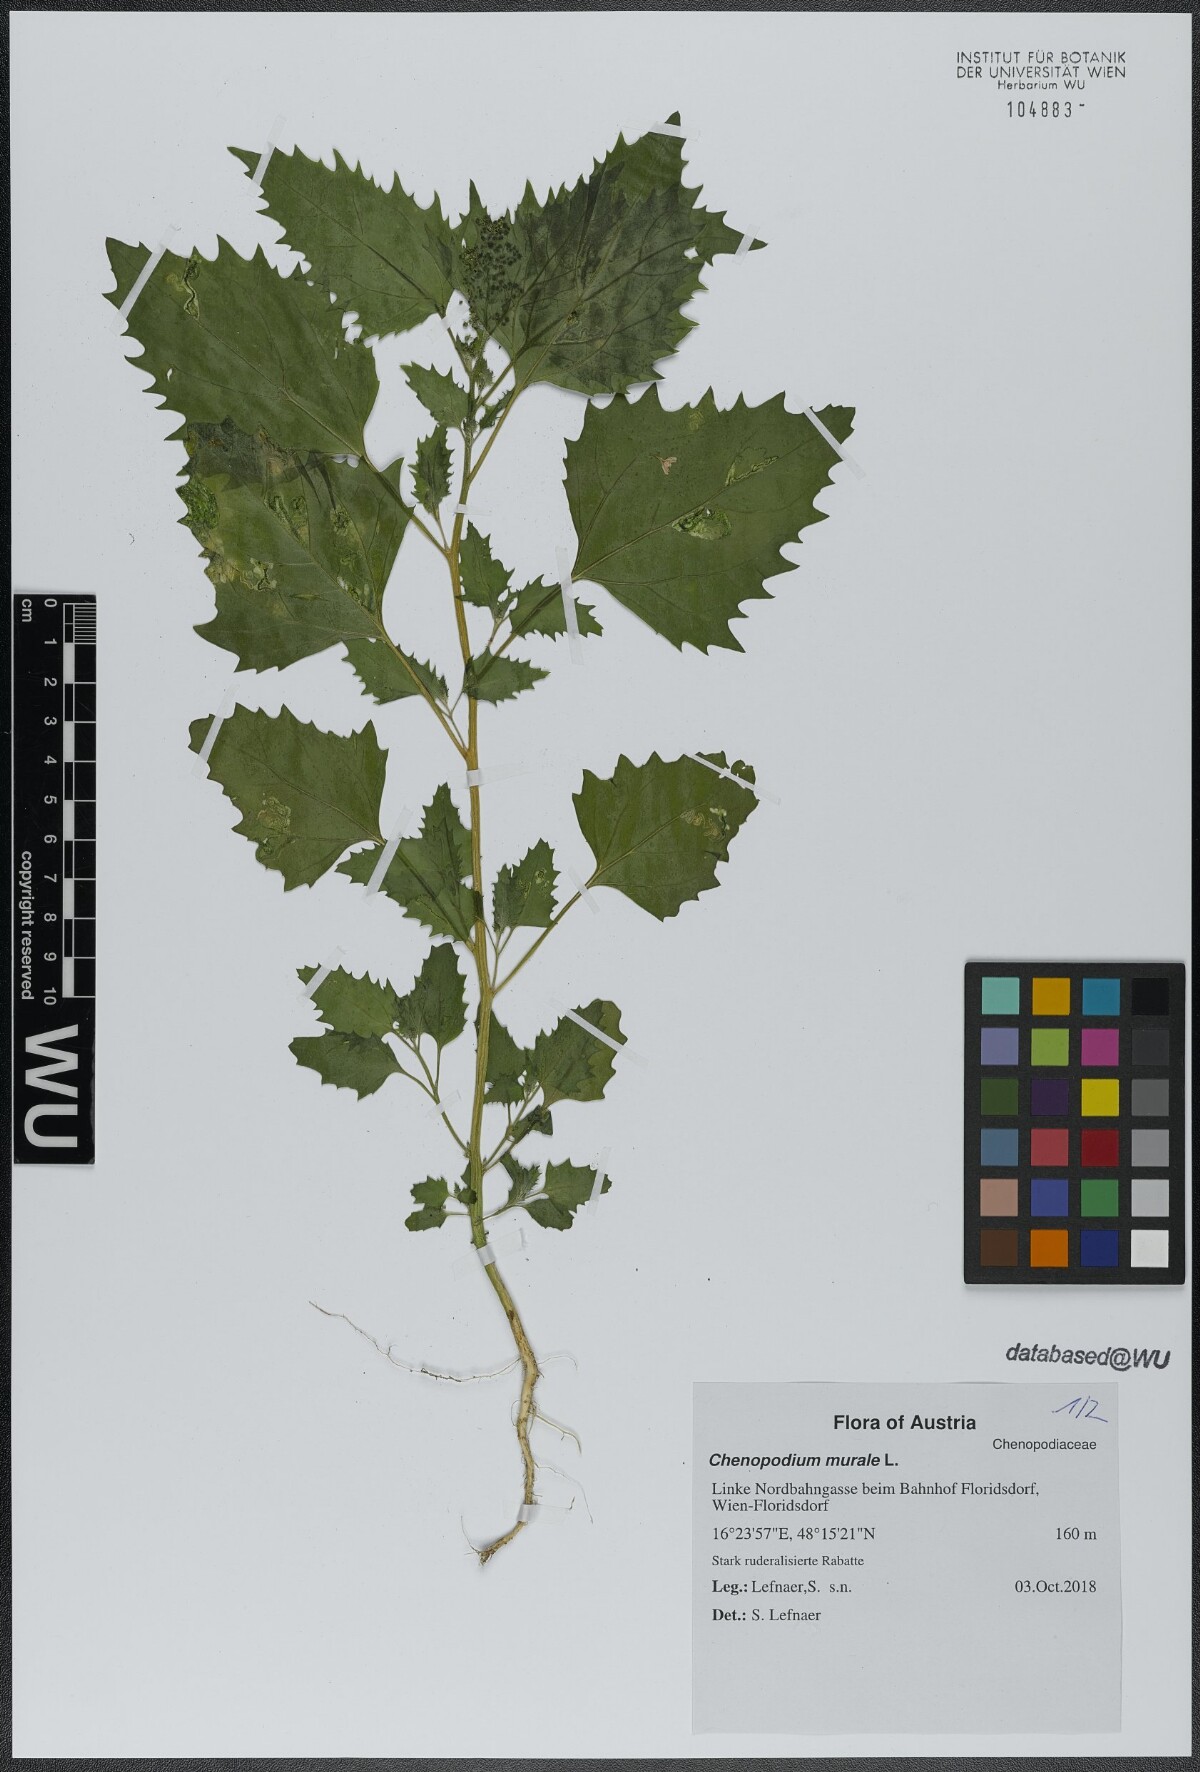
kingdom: Plantae
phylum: Tracheophyta
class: Magnoliopsida
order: Caryophyllales
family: Amaranthaceae
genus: Chenopodiastrum
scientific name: Chenopodiastrum murale
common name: Sowbane
